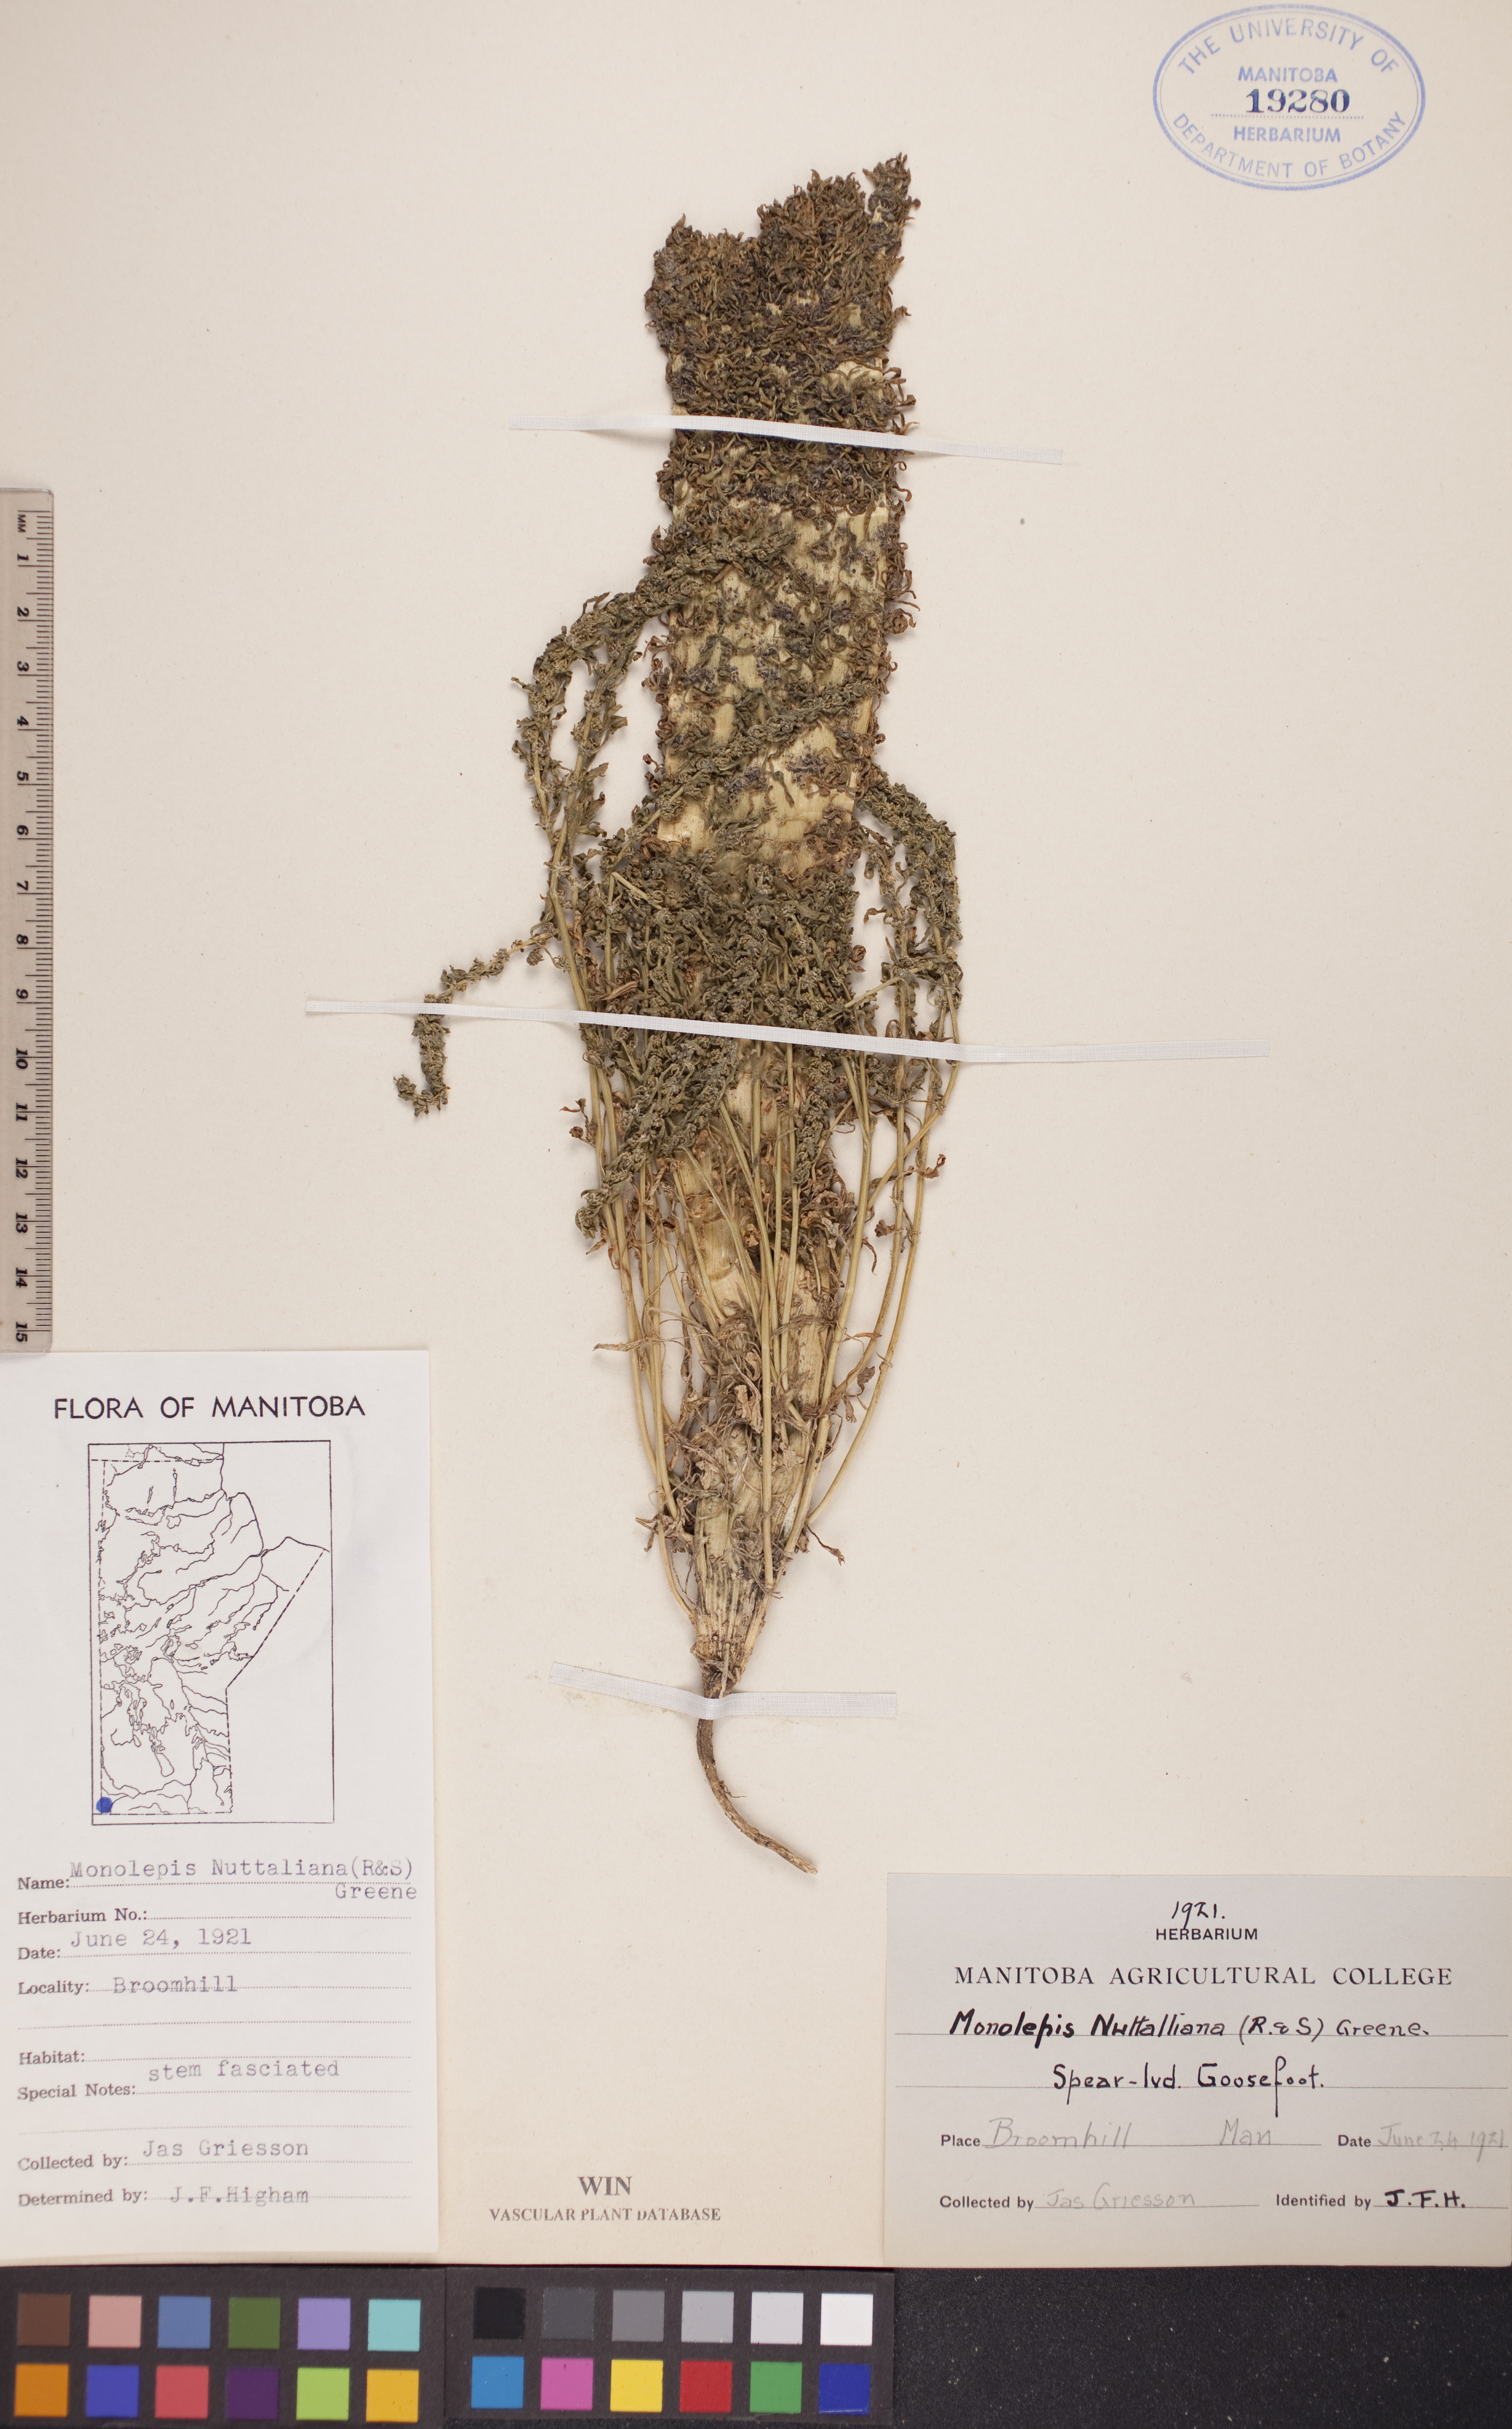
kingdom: Plantae
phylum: Tracheophyta
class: Magnoliopsida
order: Caryophyllales
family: Amaranthaceae
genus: Blitum
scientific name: Blitum nuttallianum
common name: Poverty-weed
